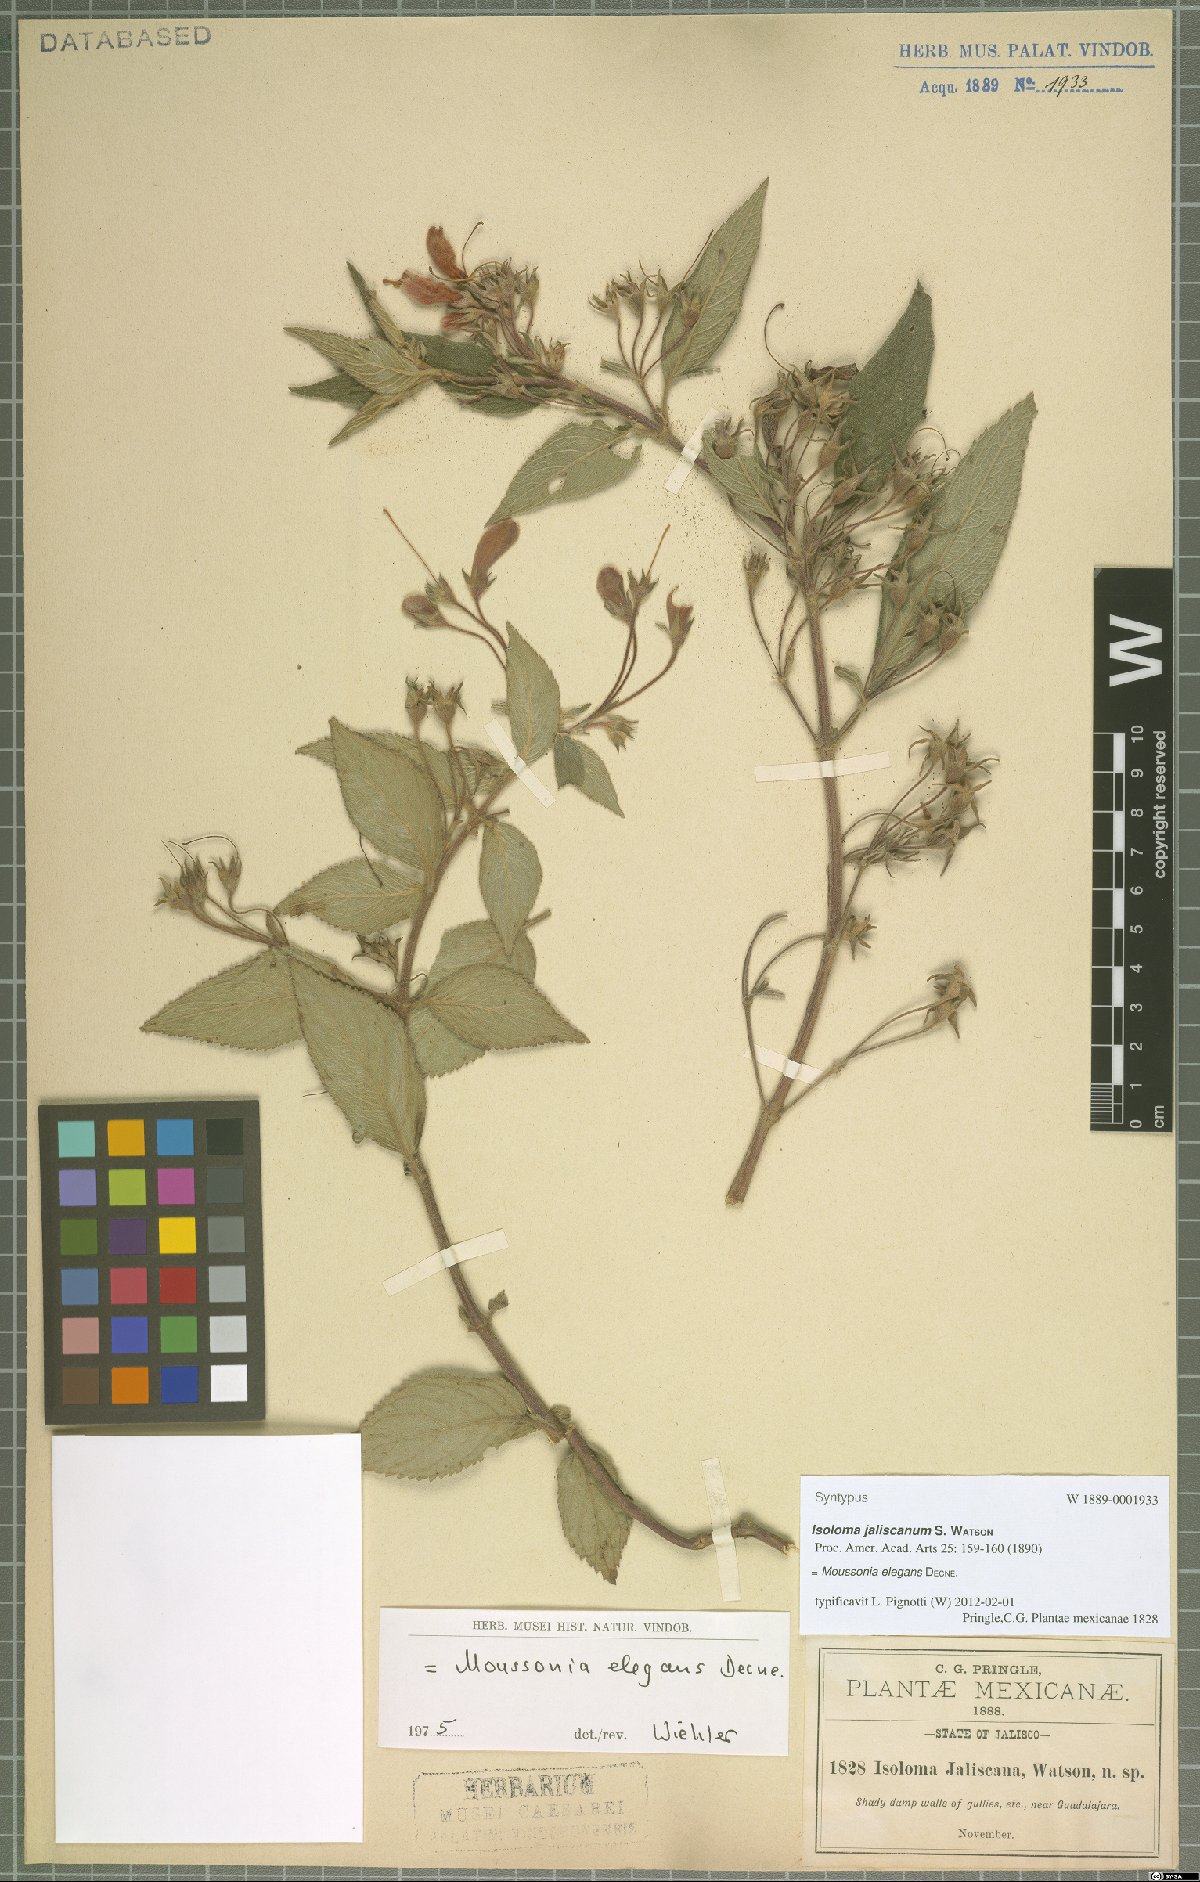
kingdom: Plantae
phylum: Tracheophyta
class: Magnoliopsida
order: Lamiales
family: Gesneriaceae
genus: Moussonia
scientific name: Moussonia elegans
